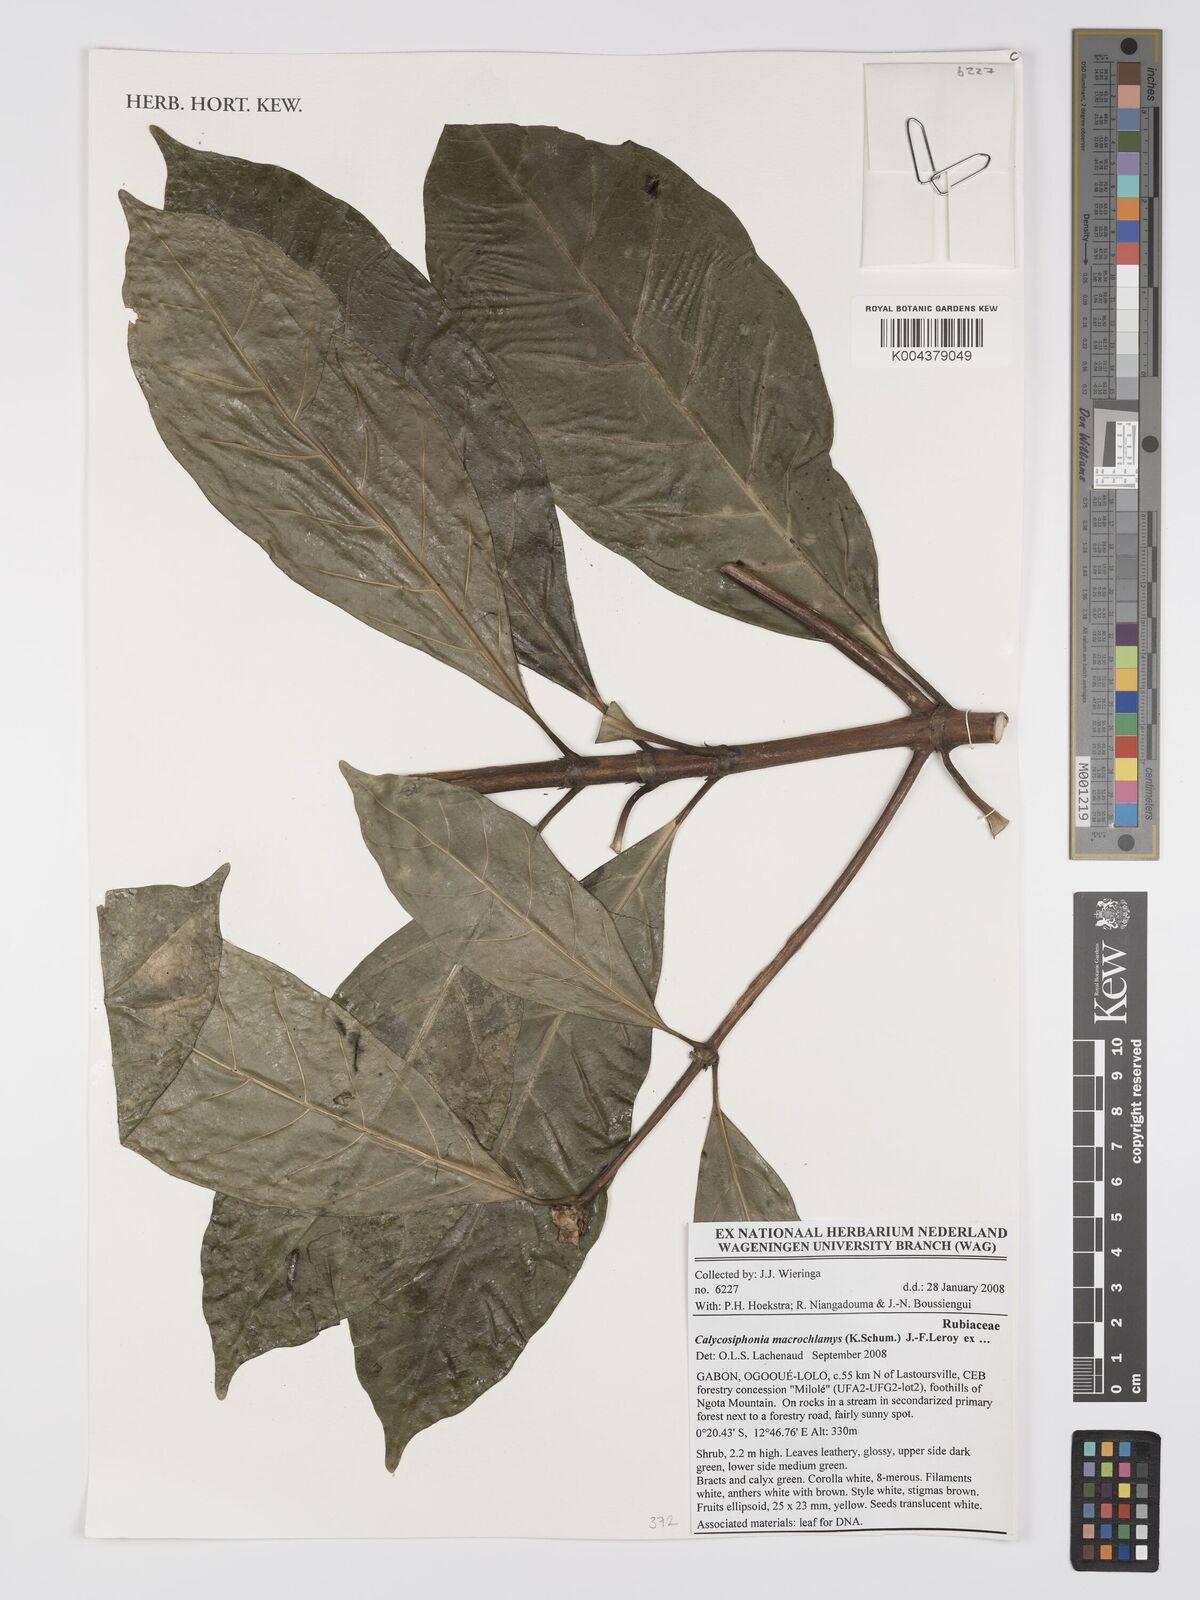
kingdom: Plantae
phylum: Tracheophyta
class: Magnoliopsida
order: Gentianales
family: Rubiaceae
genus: Calycosiphonia
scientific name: Calycosiphonia macrochlamys
